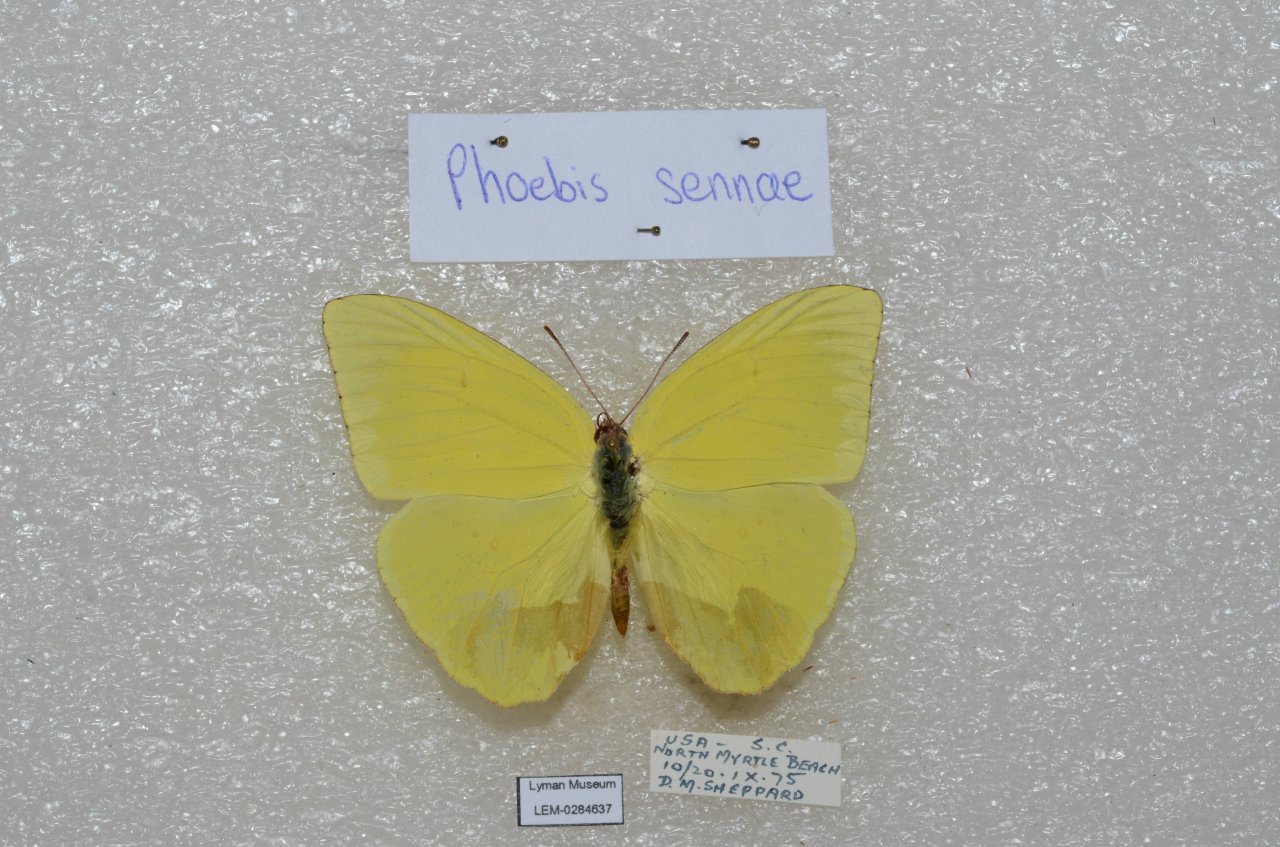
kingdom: Animalia
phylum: Arthropoda
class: Insecta
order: Lepidoptera
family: Pieridae
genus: Phoebis
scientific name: Phoebis sennae
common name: Cloudless Sulphur
